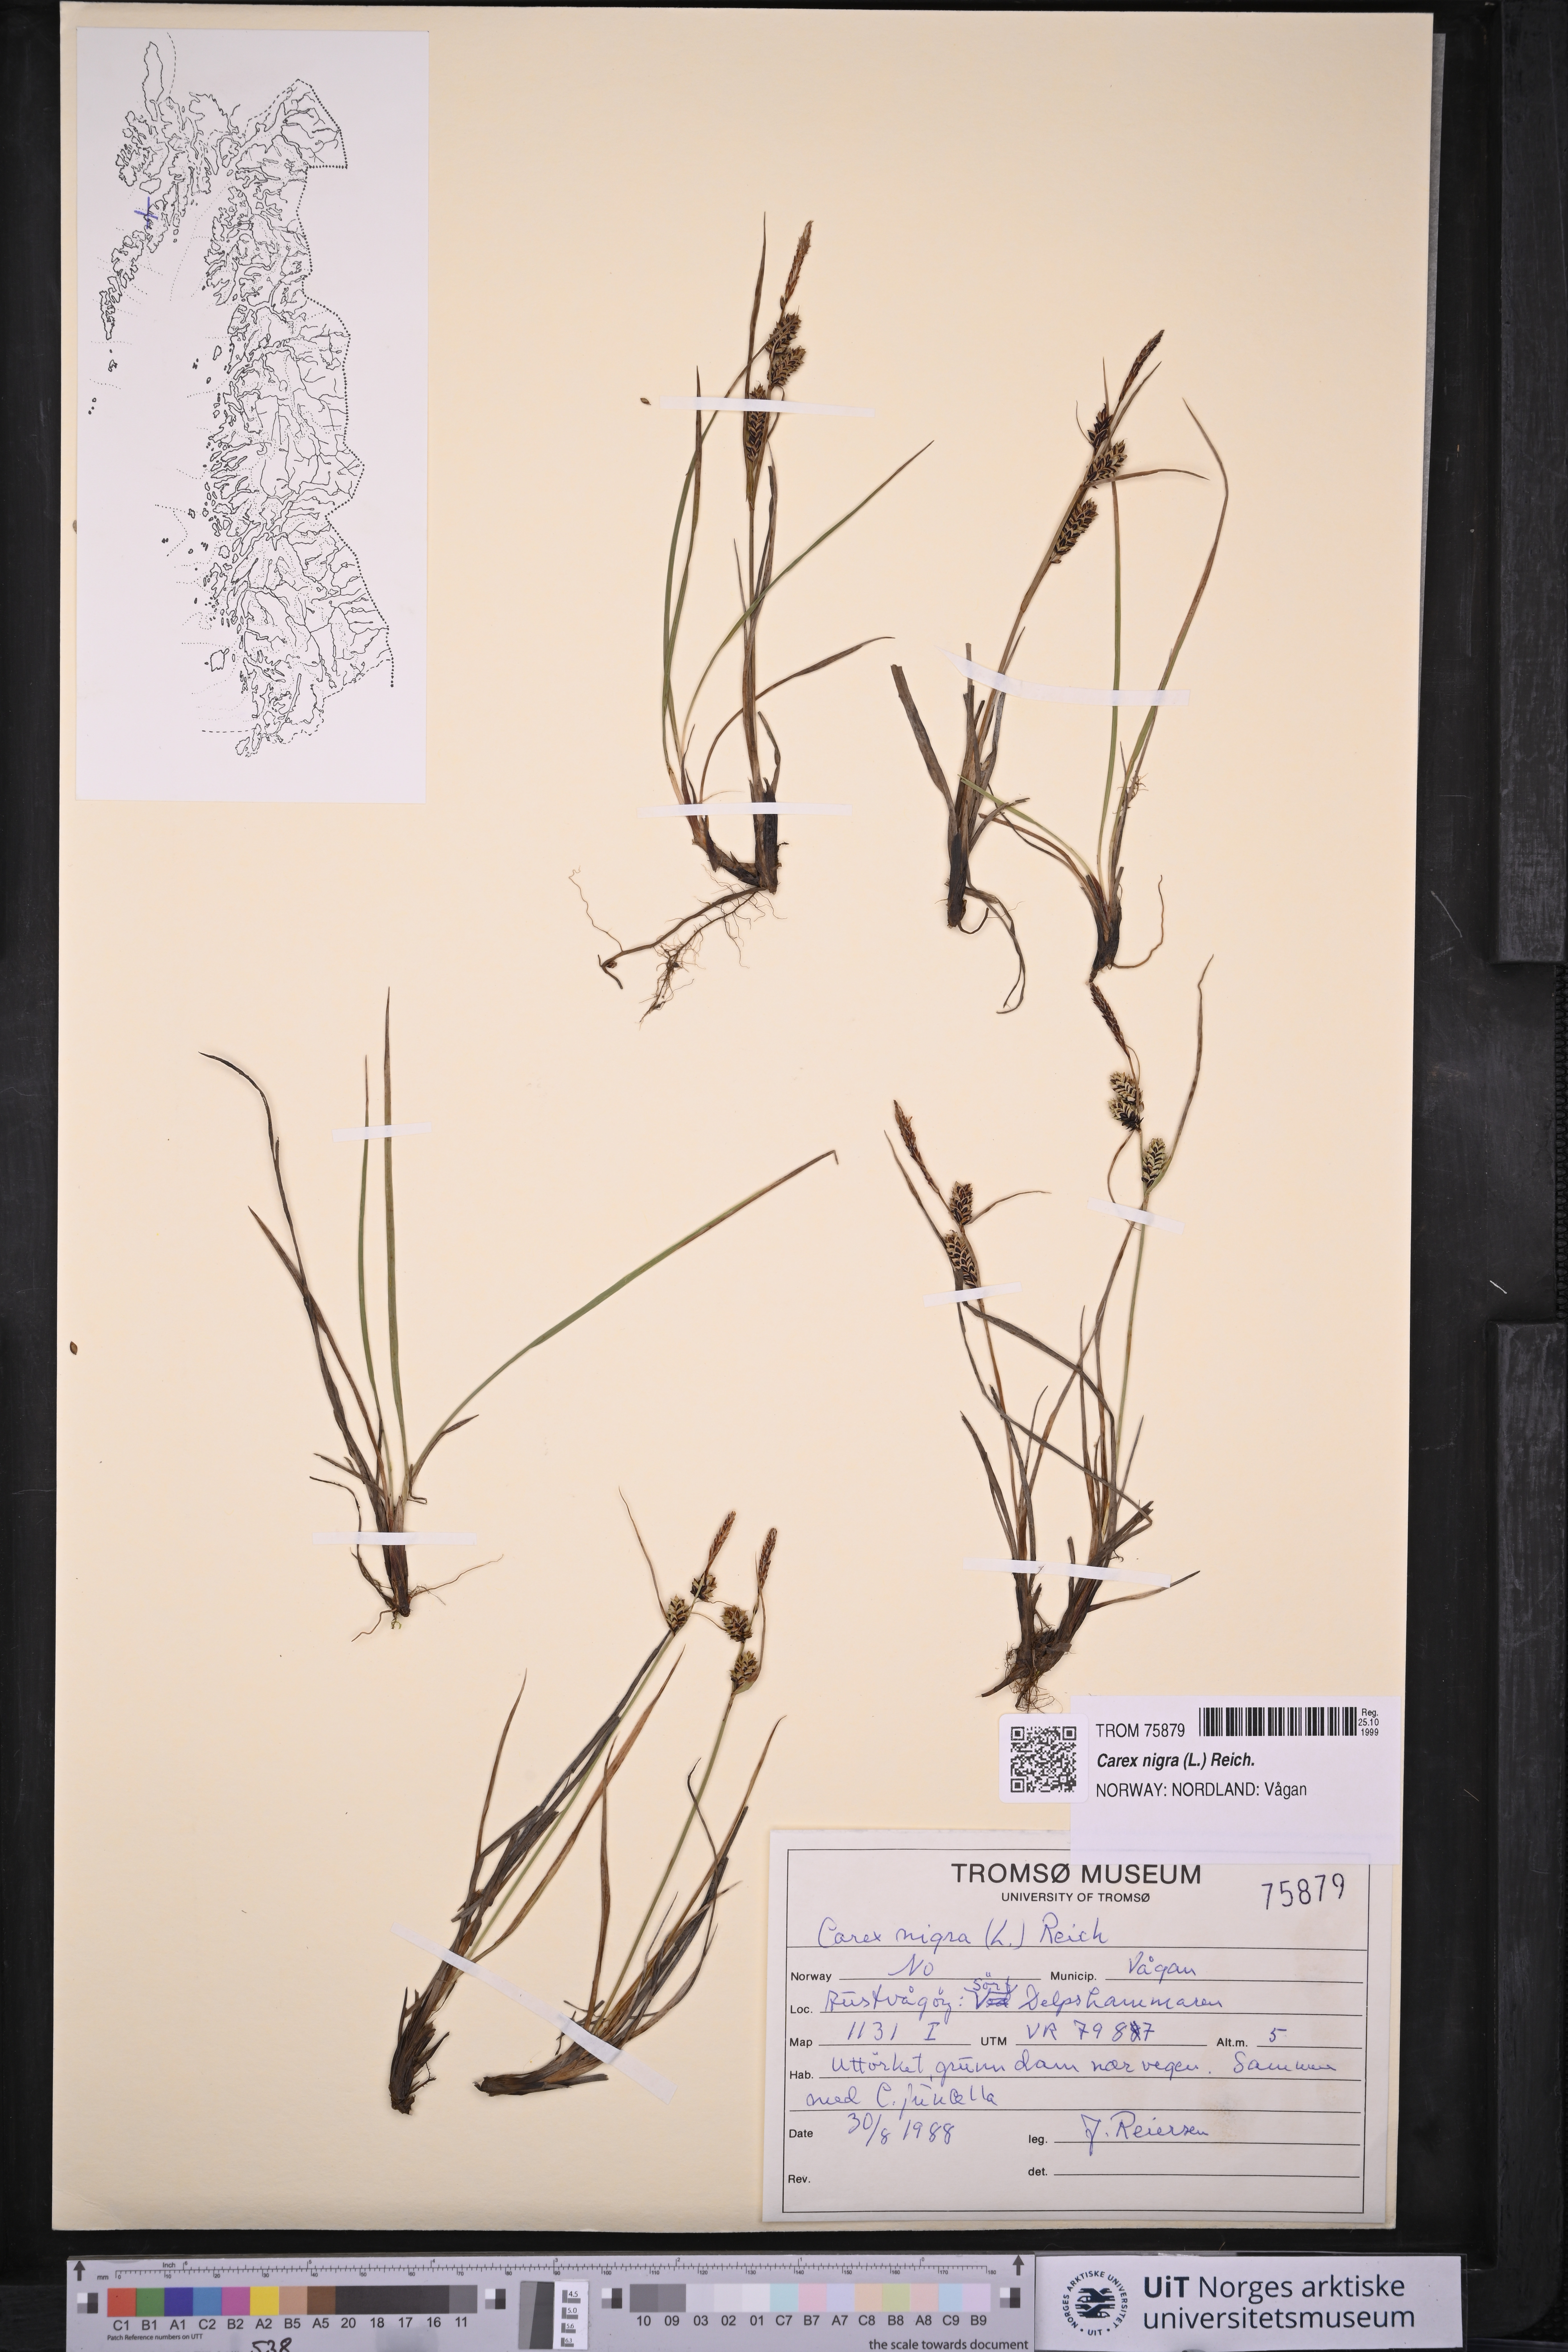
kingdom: Plantae
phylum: Tracheophyta
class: Liliopsida
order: Poales
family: Cyperaceae
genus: Carex
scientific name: Carex nigra
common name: Common sedge
